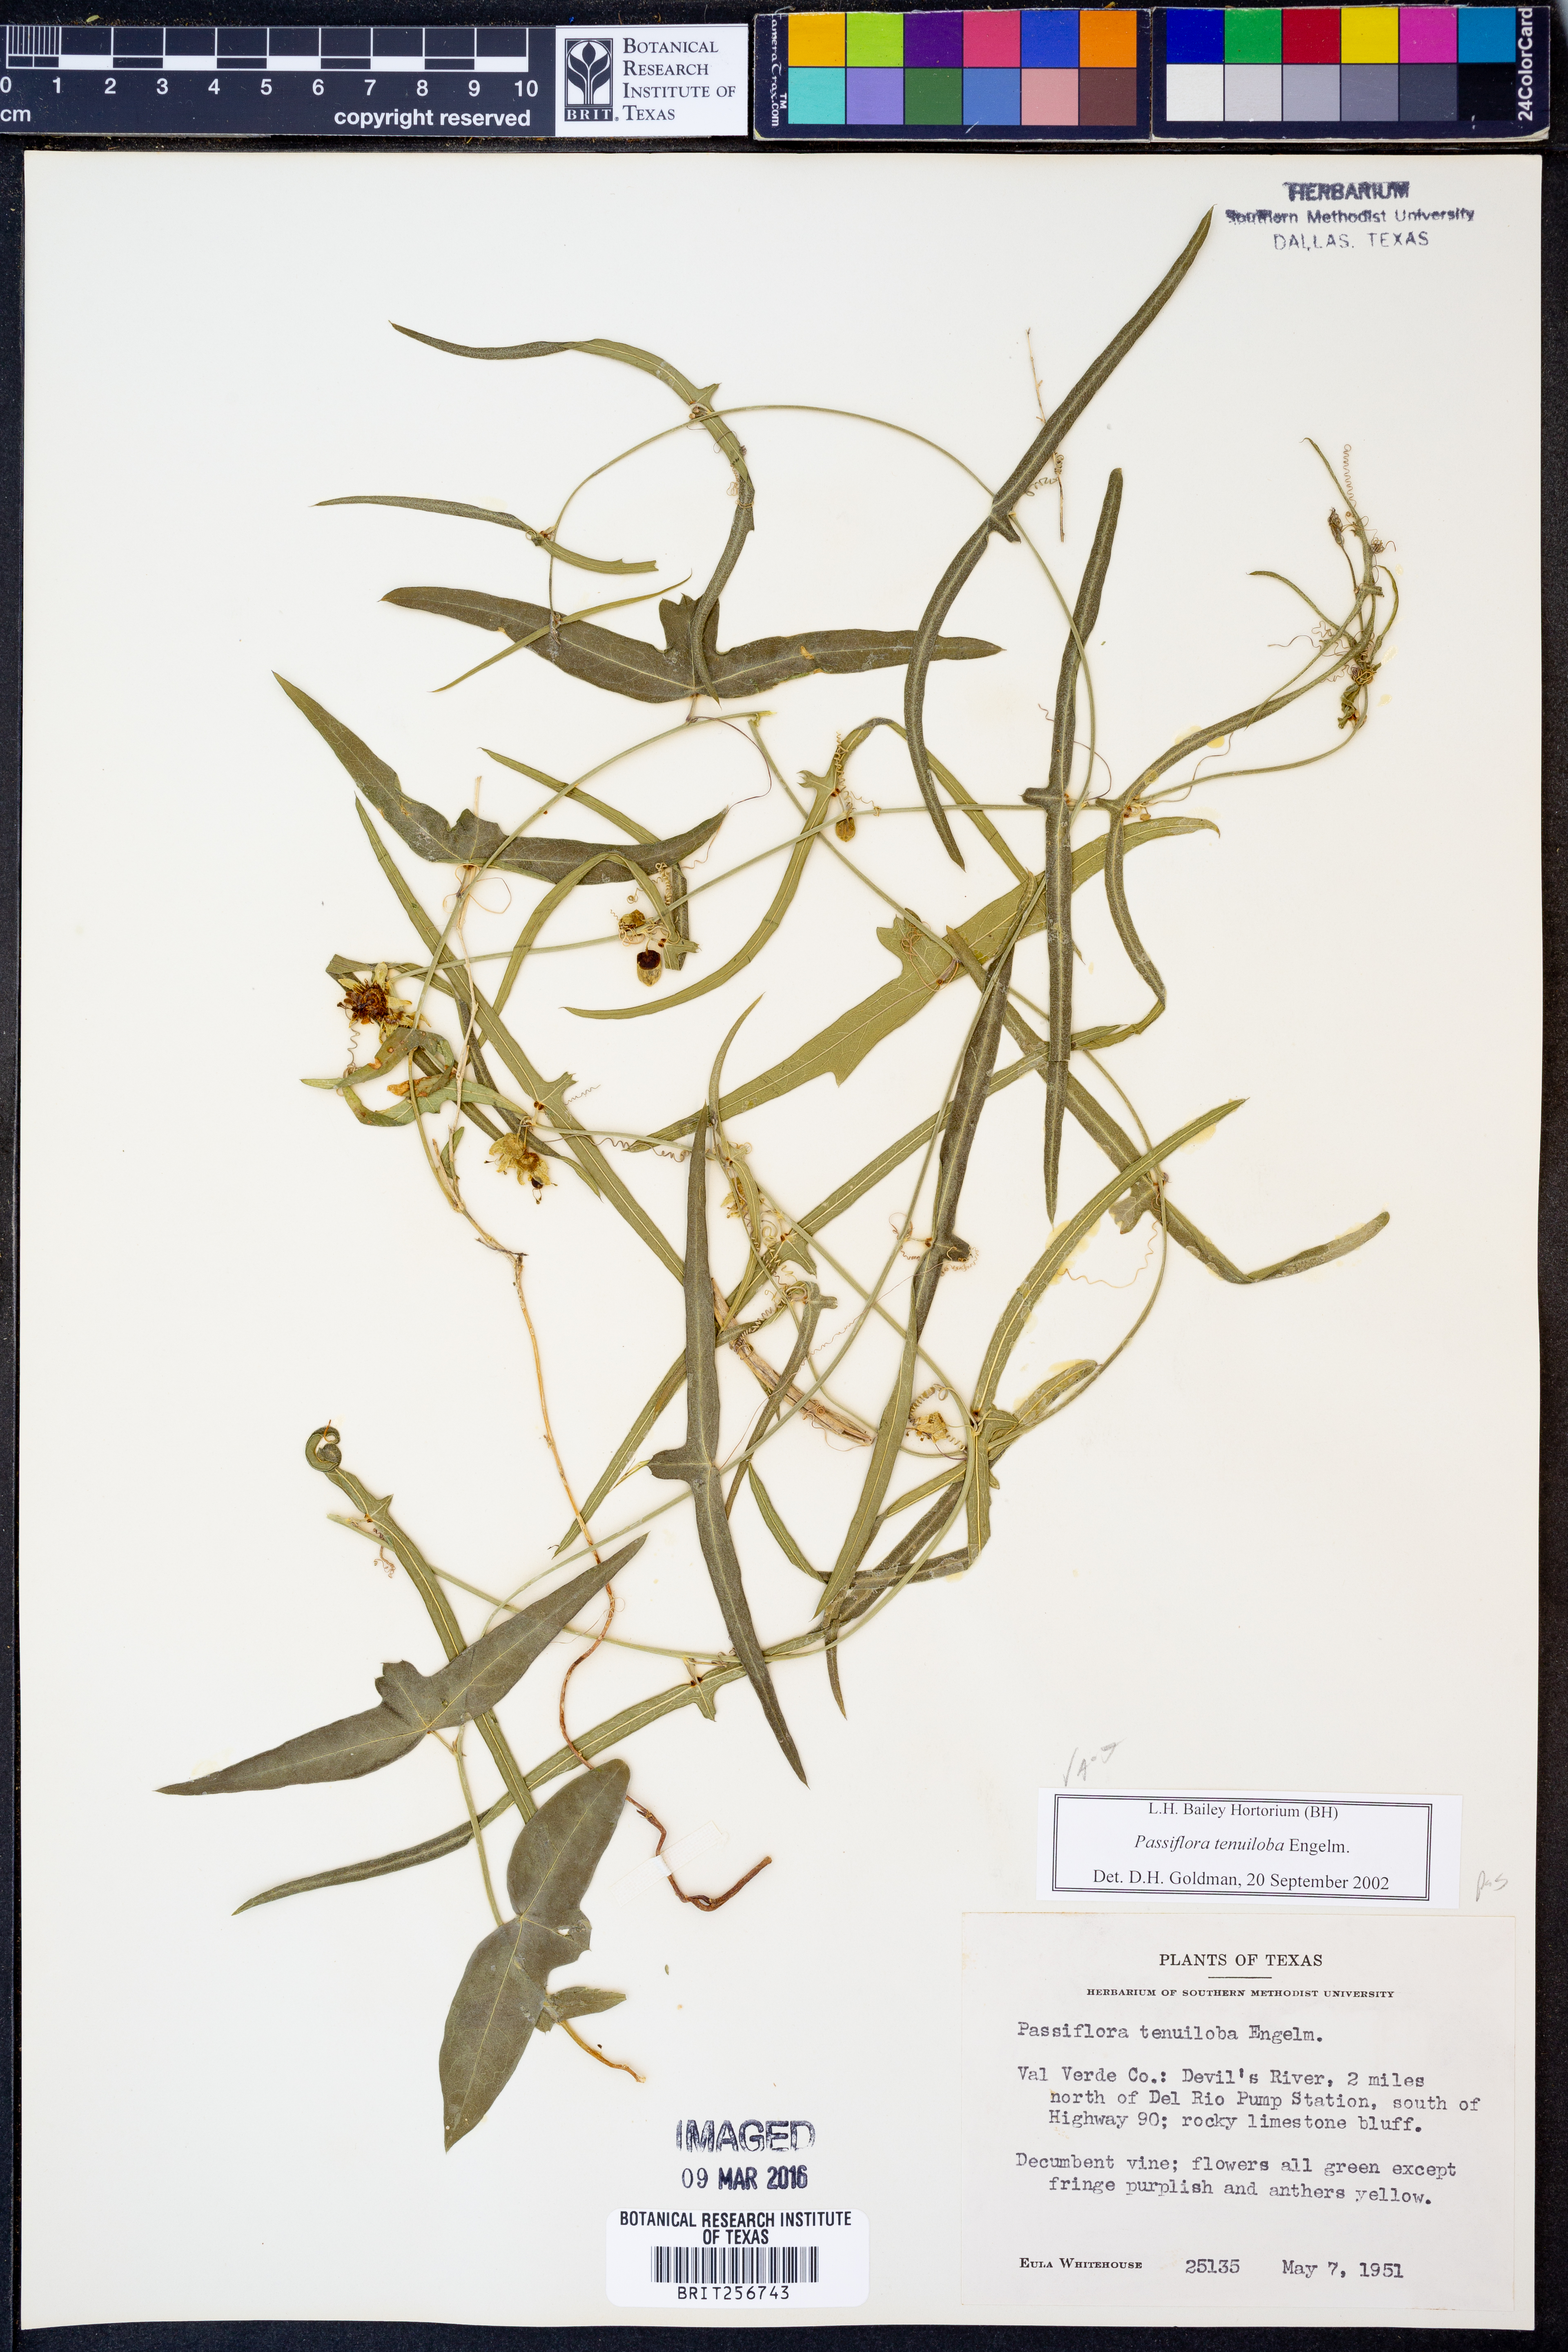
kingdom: Plantae
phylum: Tracheophyta
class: Magnoliopsida
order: Malpighiales
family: Passifloraceae
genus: Passiflora
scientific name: Passiflora tenuiloba
